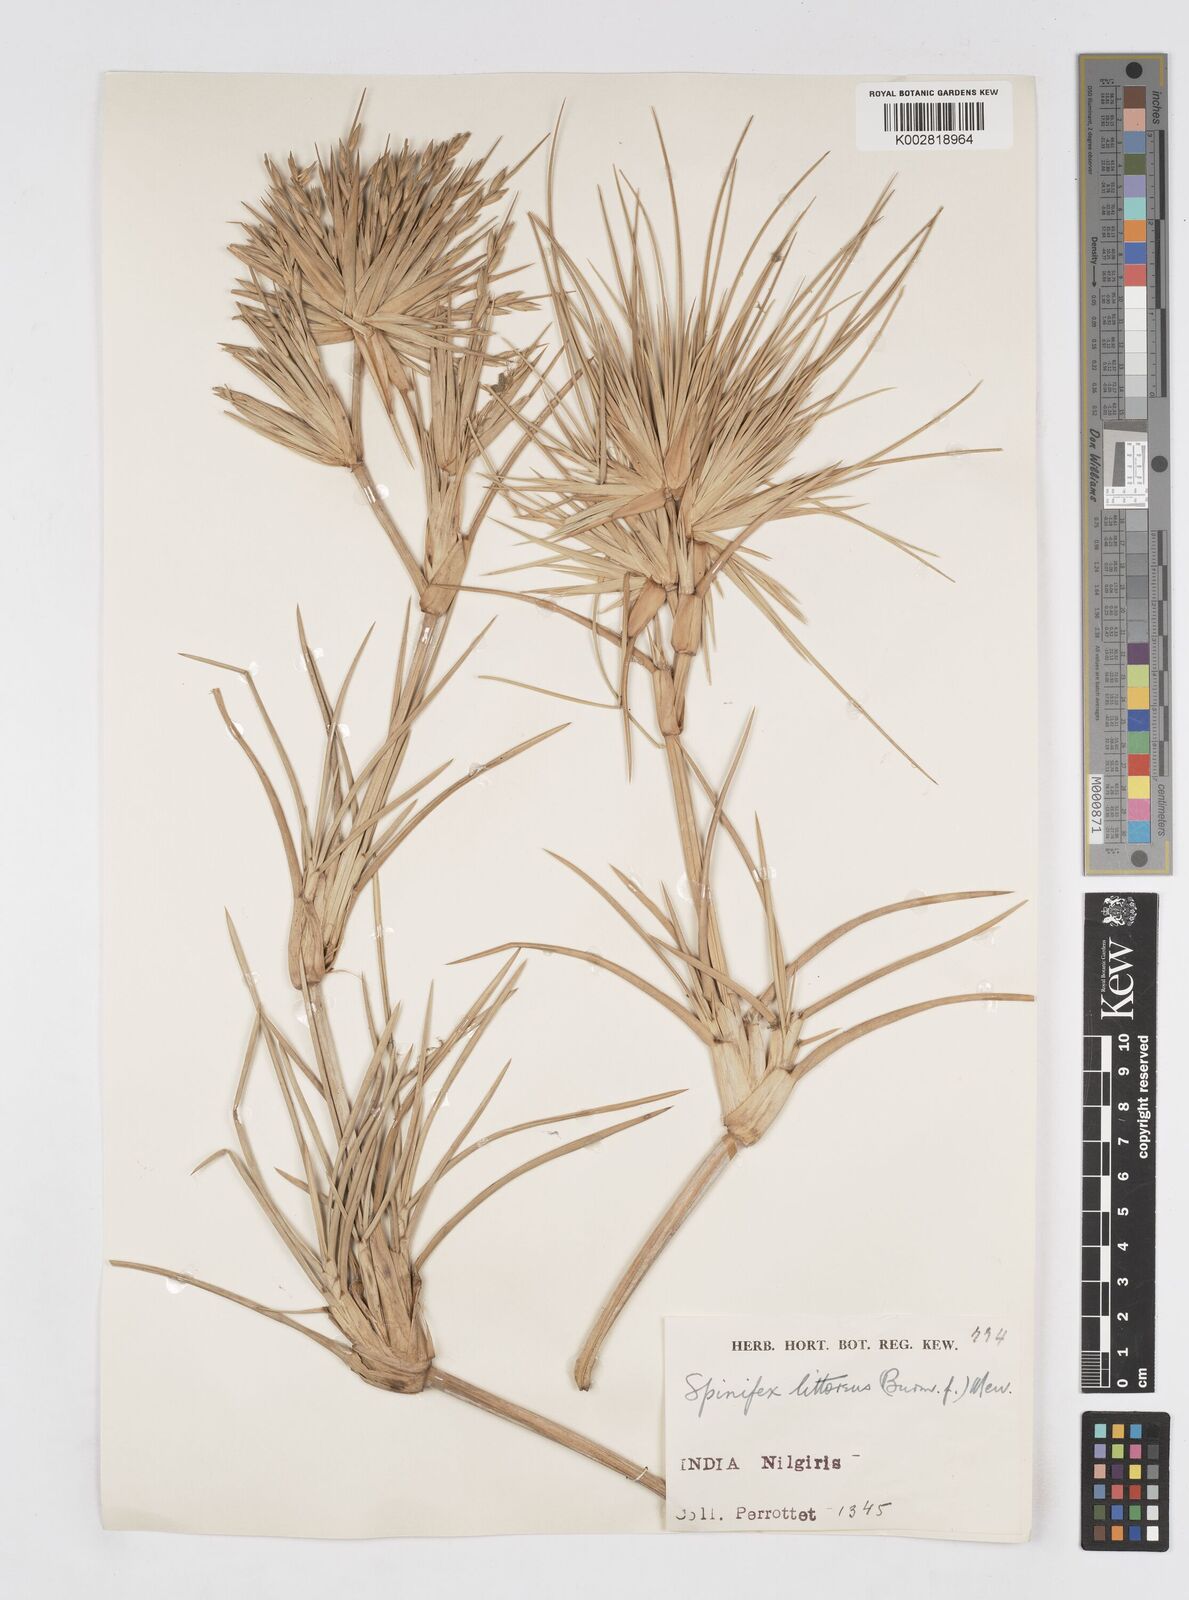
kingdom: Plantae
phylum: Tracheophyta
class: Liliopsida
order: Poales
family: Poaceae
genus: Spinifex
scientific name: Spinifex littoreus
